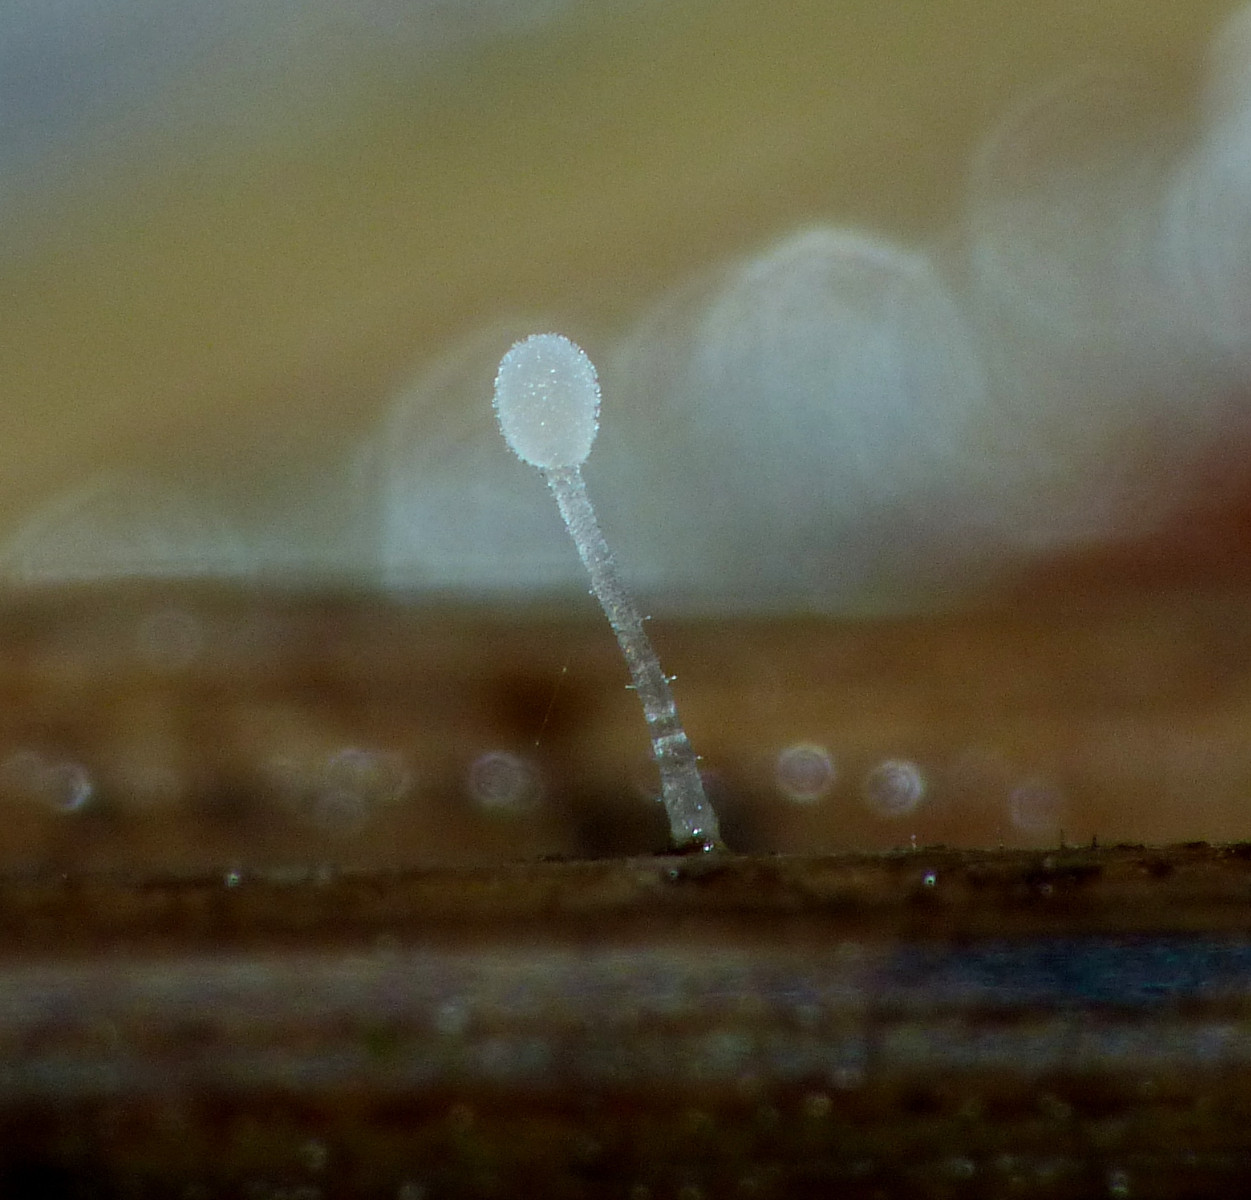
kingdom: Fungi
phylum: Basidiomycota
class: Agaricomycetes
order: Agaricales
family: Typhulaceae
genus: Typhula
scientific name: Typhula caricina
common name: star-trådkølle
